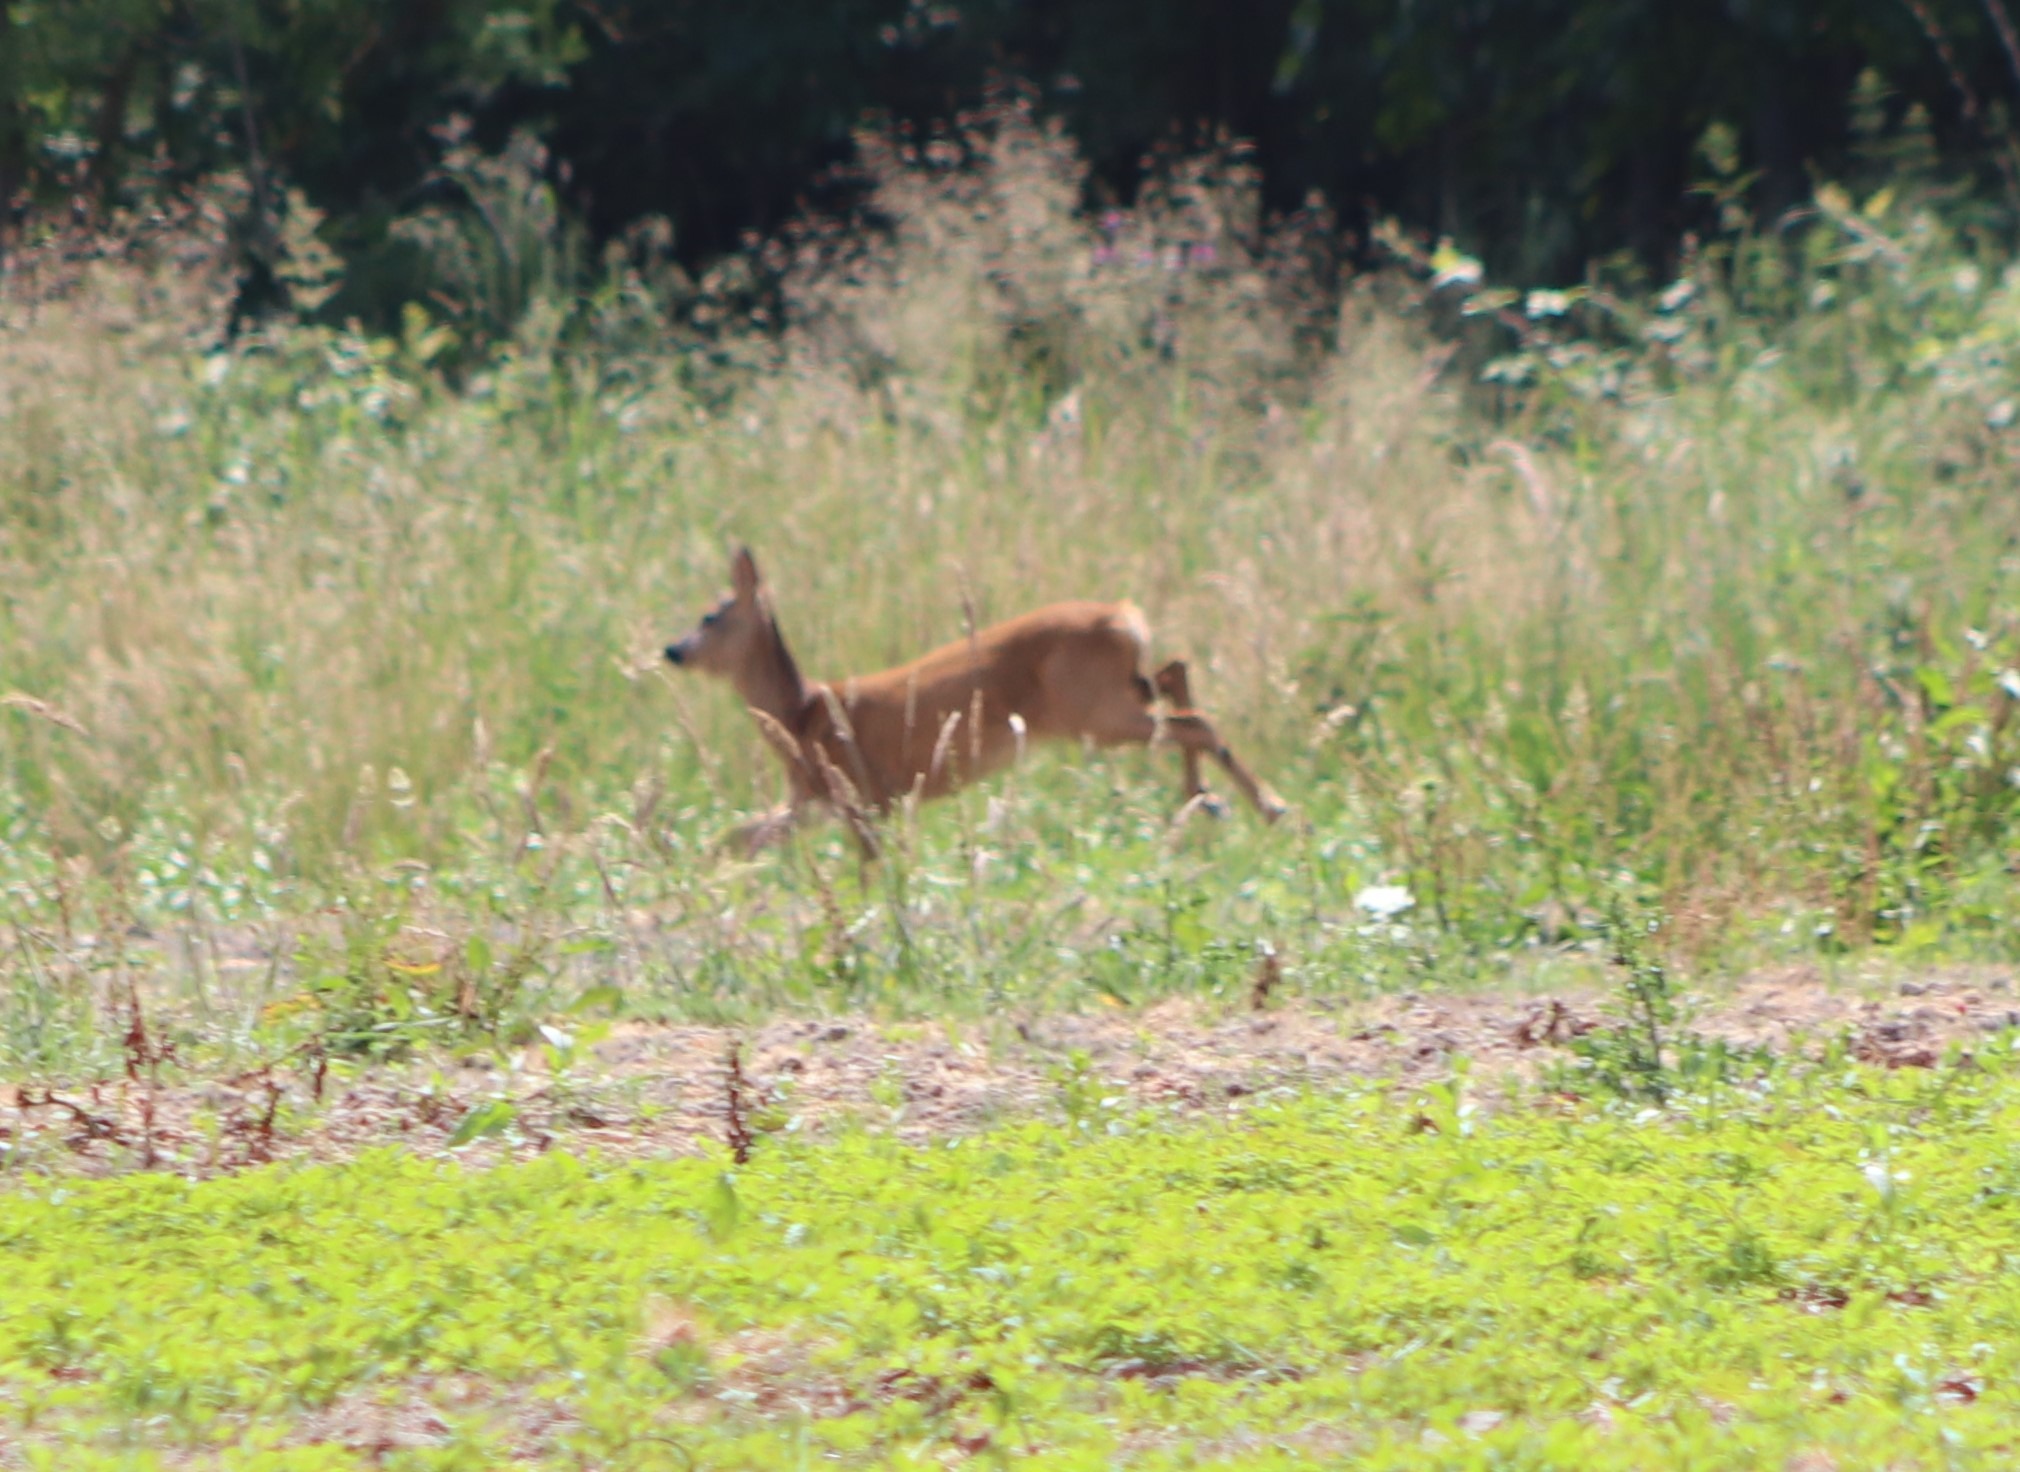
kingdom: Animalia
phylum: Chordata
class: Mammalia
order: Artiodactyla
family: Cervidae
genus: Capreolus
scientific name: Capreolus capreolus
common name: Rådyr
